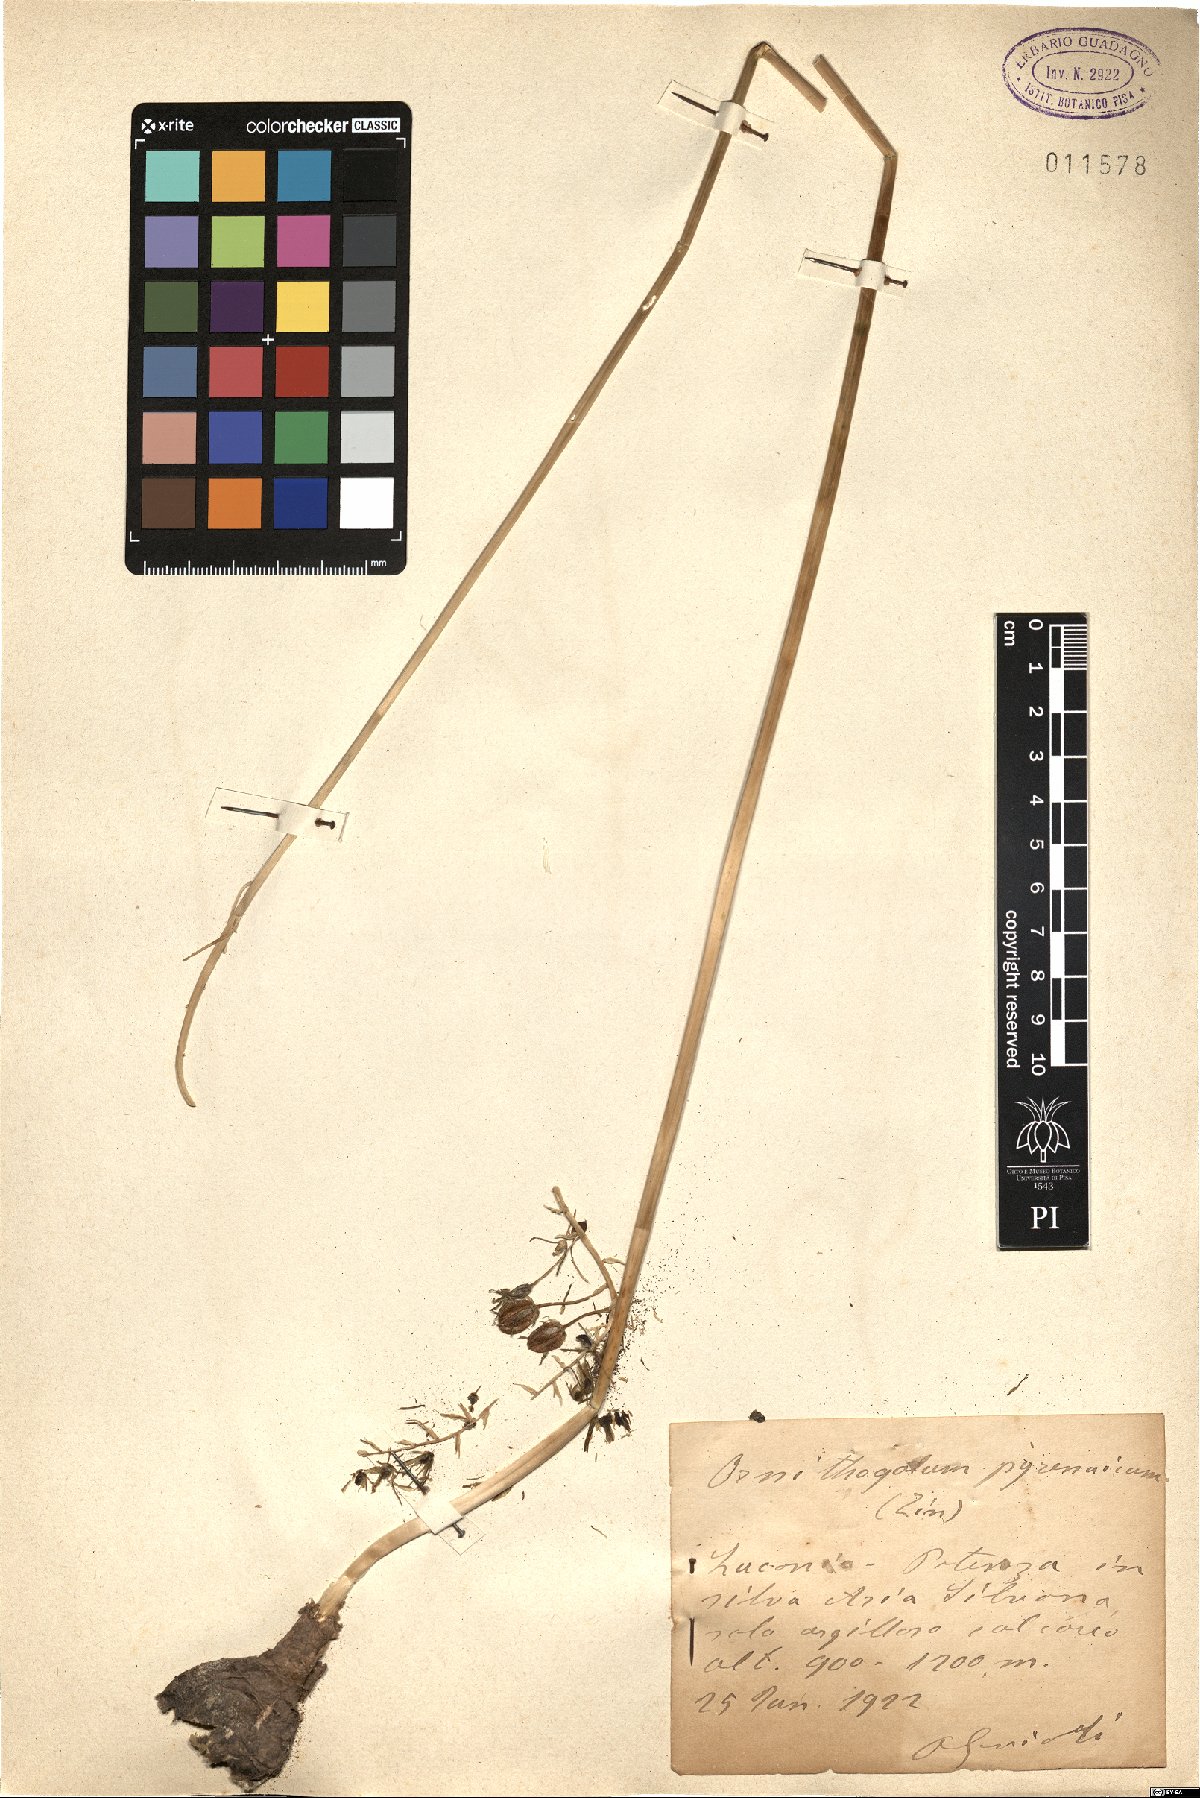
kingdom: Plantae
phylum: Tracheophyta
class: Liliopsida
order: Asparagales
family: Asparagaceae
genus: Ornithogalum
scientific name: Ornithogalum pyrenaicum
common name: Spiked star-of-bethlehem
